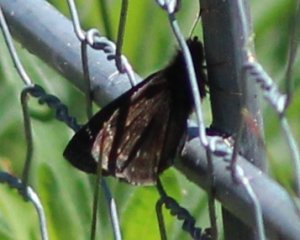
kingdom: Animalia
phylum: Arthropoda
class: Insecta
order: Lepidoptera
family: Hesperiidae
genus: Erynnis
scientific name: Erynnis
